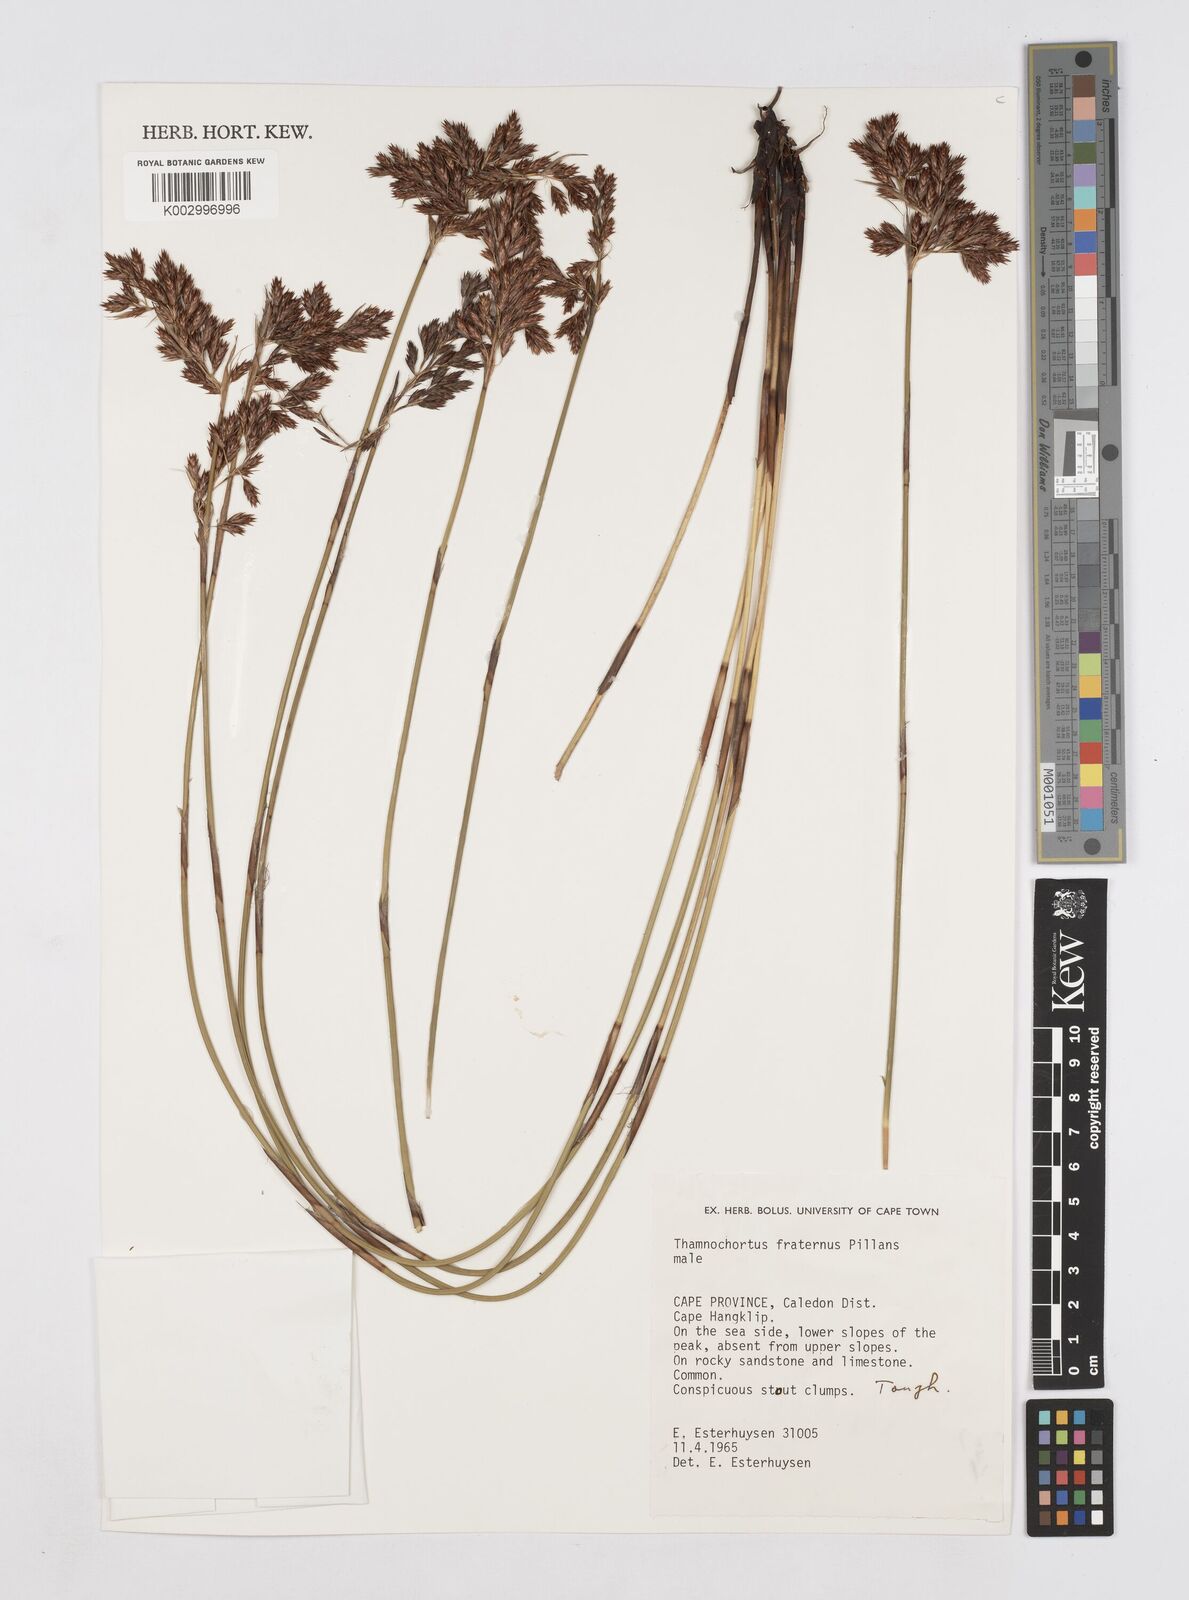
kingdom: Plantae
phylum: Tracheophyta
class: Liliopsida
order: Poales
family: Restionaceae
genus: Thamnochortus
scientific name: Thamnochortus fraternus
